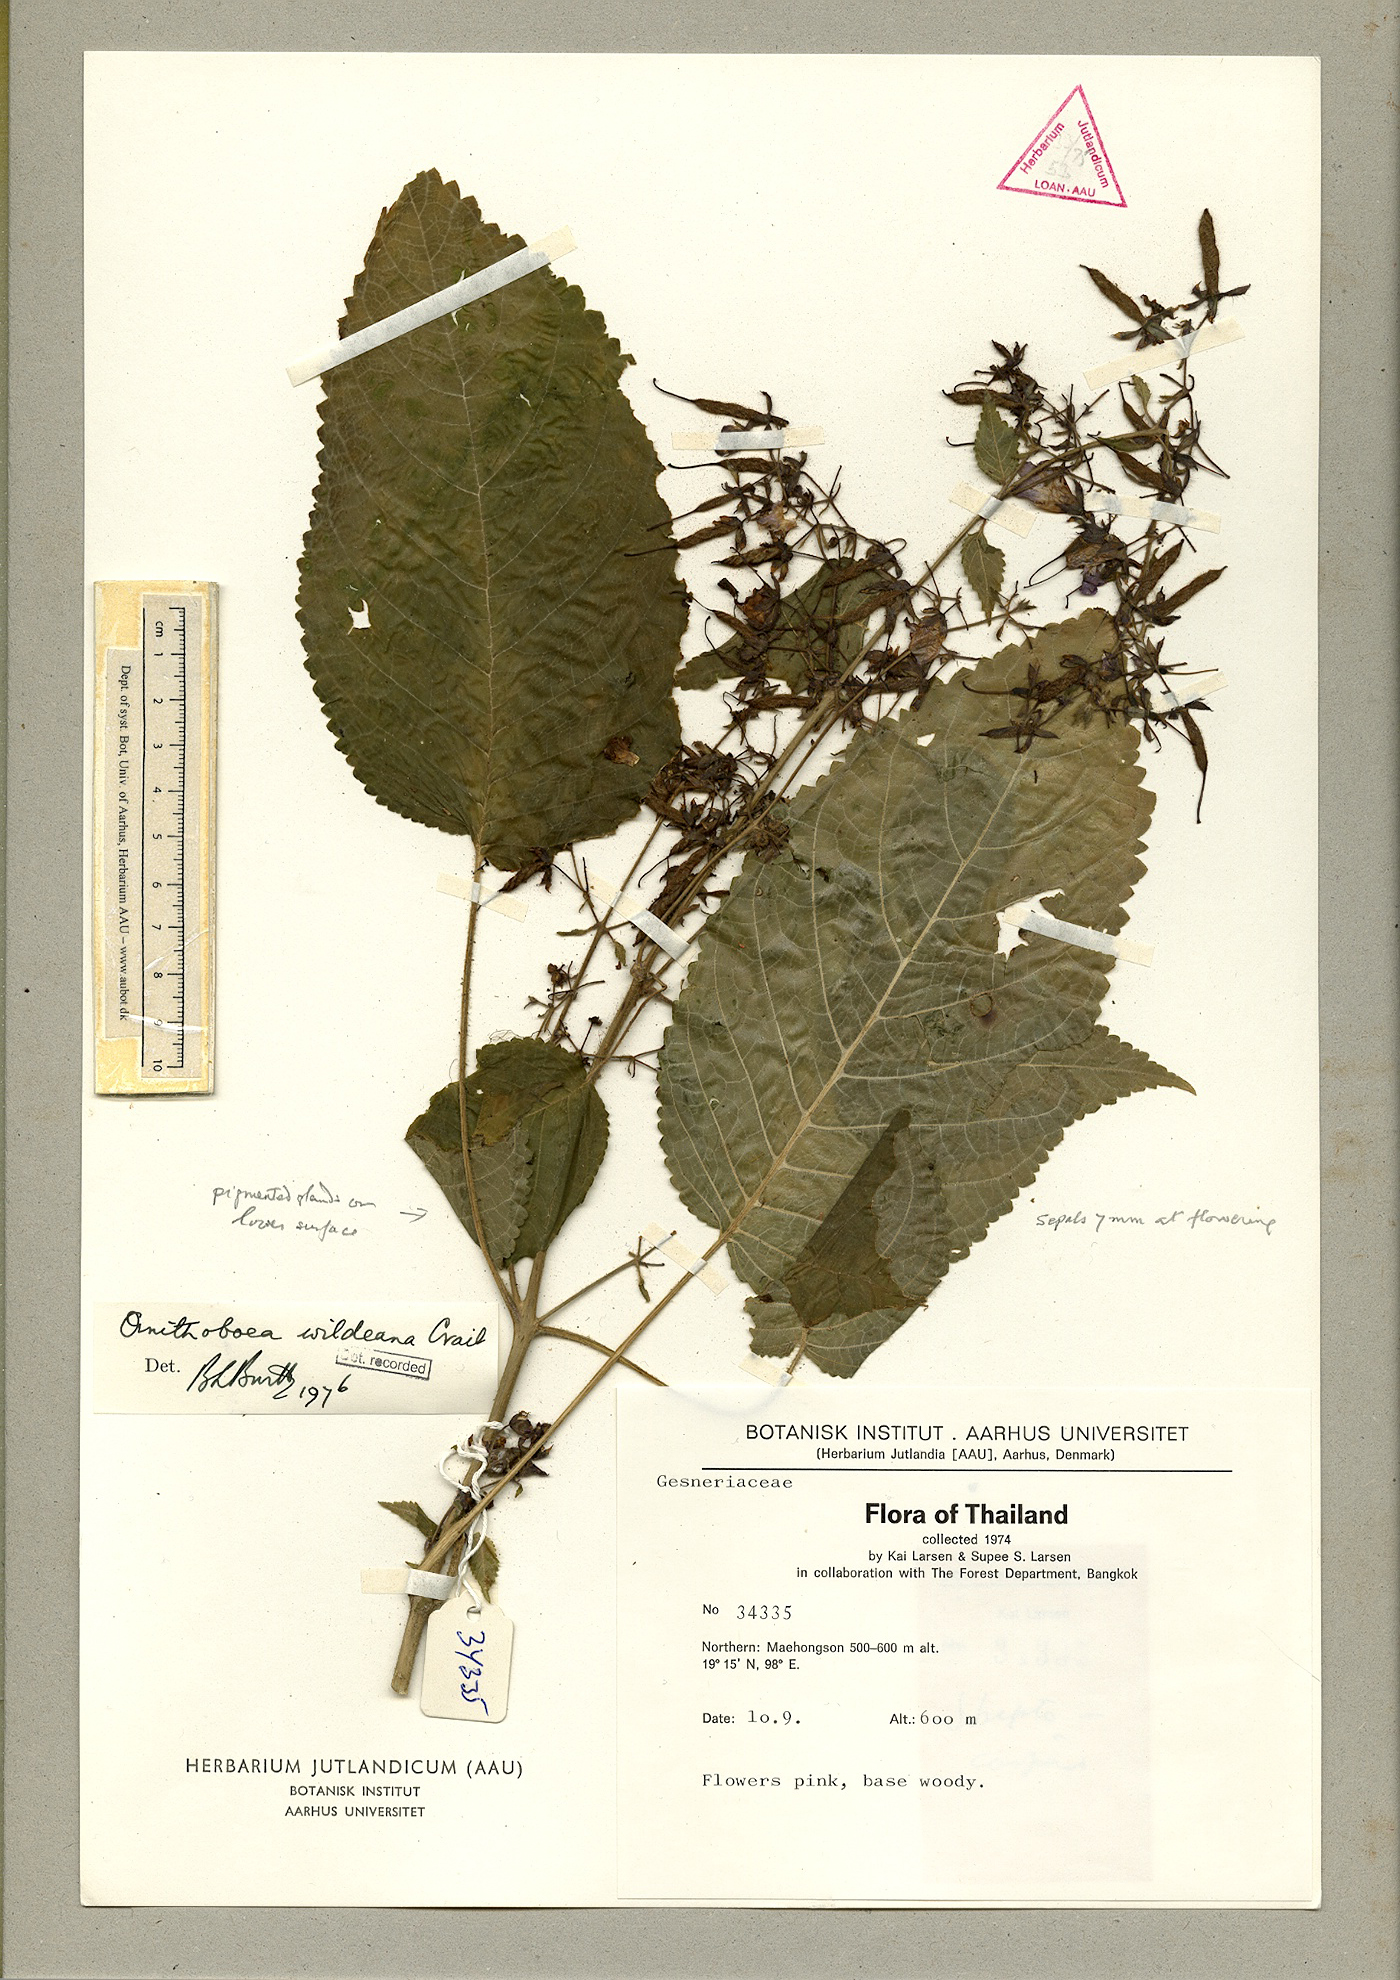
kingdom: Plantae
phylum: Tracheophyta
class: Magnoliopsida
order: Lamiales
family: Gesneriaceae
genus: Ornithoboea
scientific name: Ornithoboea wildeana
